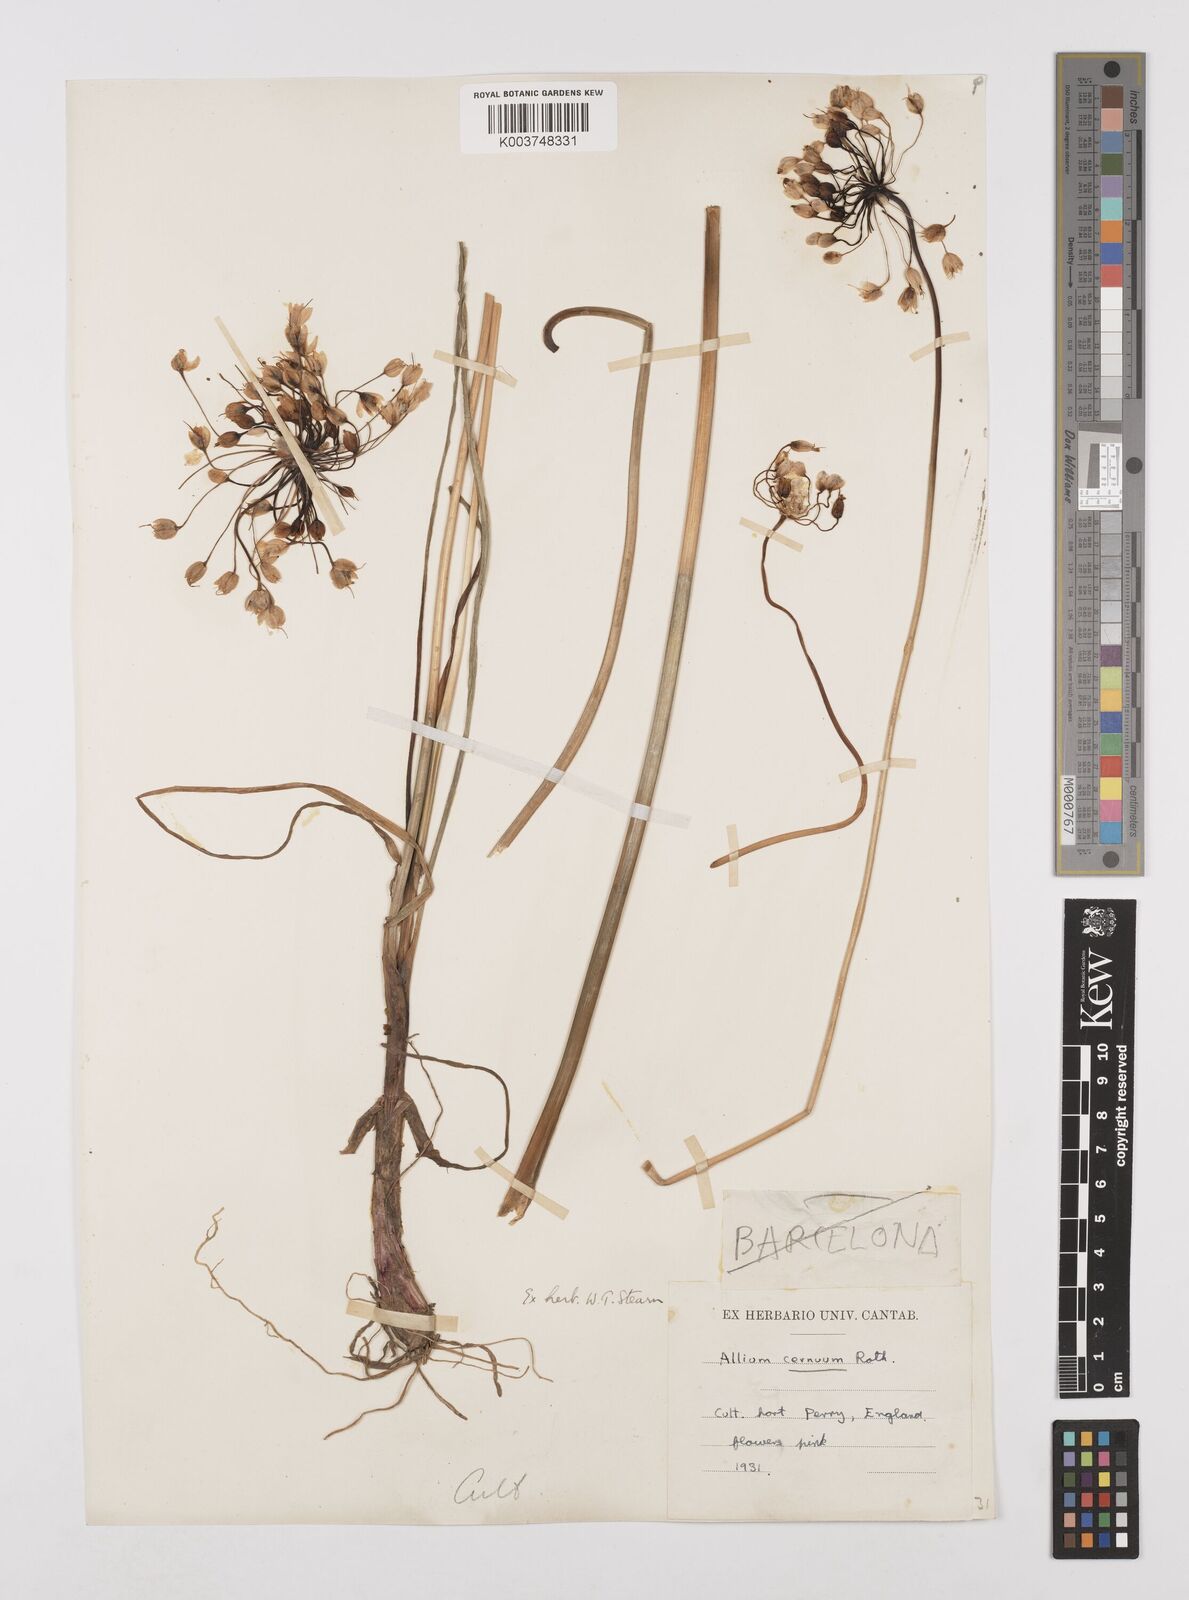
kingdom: Plantae
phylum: Tracheophyta
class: Liliopsida
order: Asparagales
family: Amaryllidaceae
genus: Allium
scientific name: Allium cernuum
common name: Nodding onion
